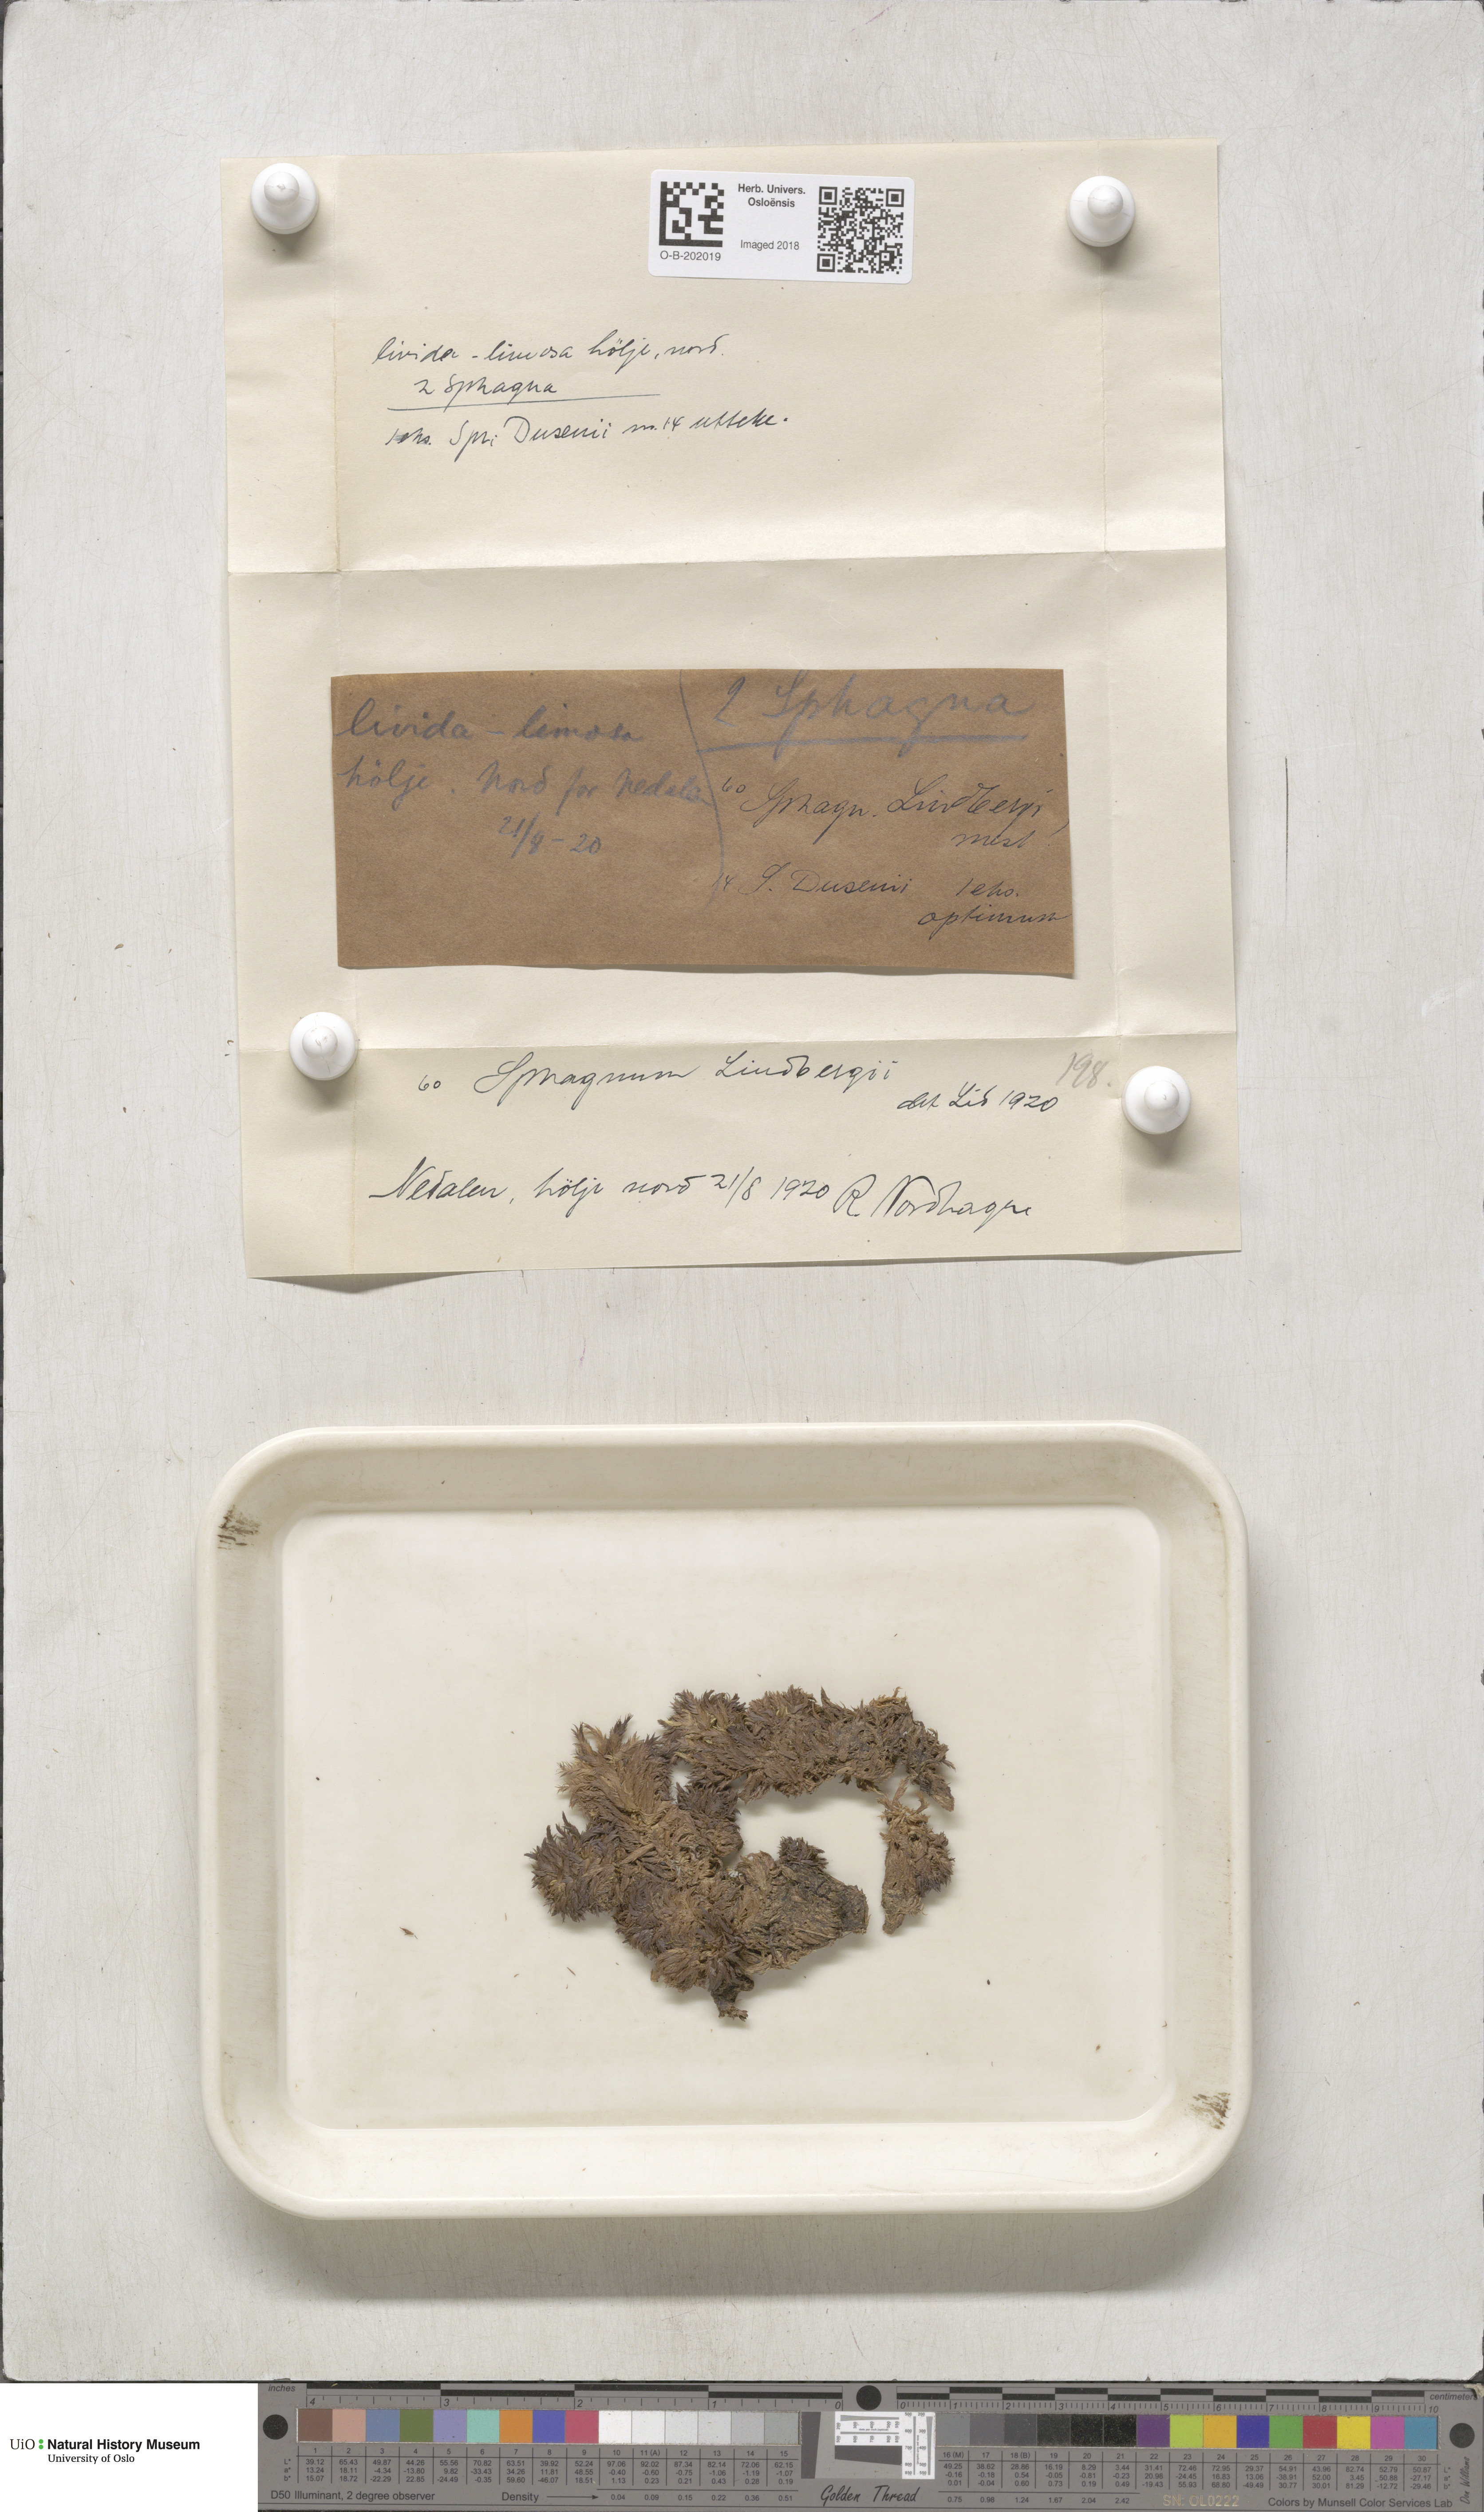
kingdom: Plantae
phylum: Bryophyta
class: Sphagnopsida
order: Sphagnales
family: Sphagnaceae
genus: Sphagnum
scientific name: Sphagnum lindbergii
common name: Lindberg's peat moss
